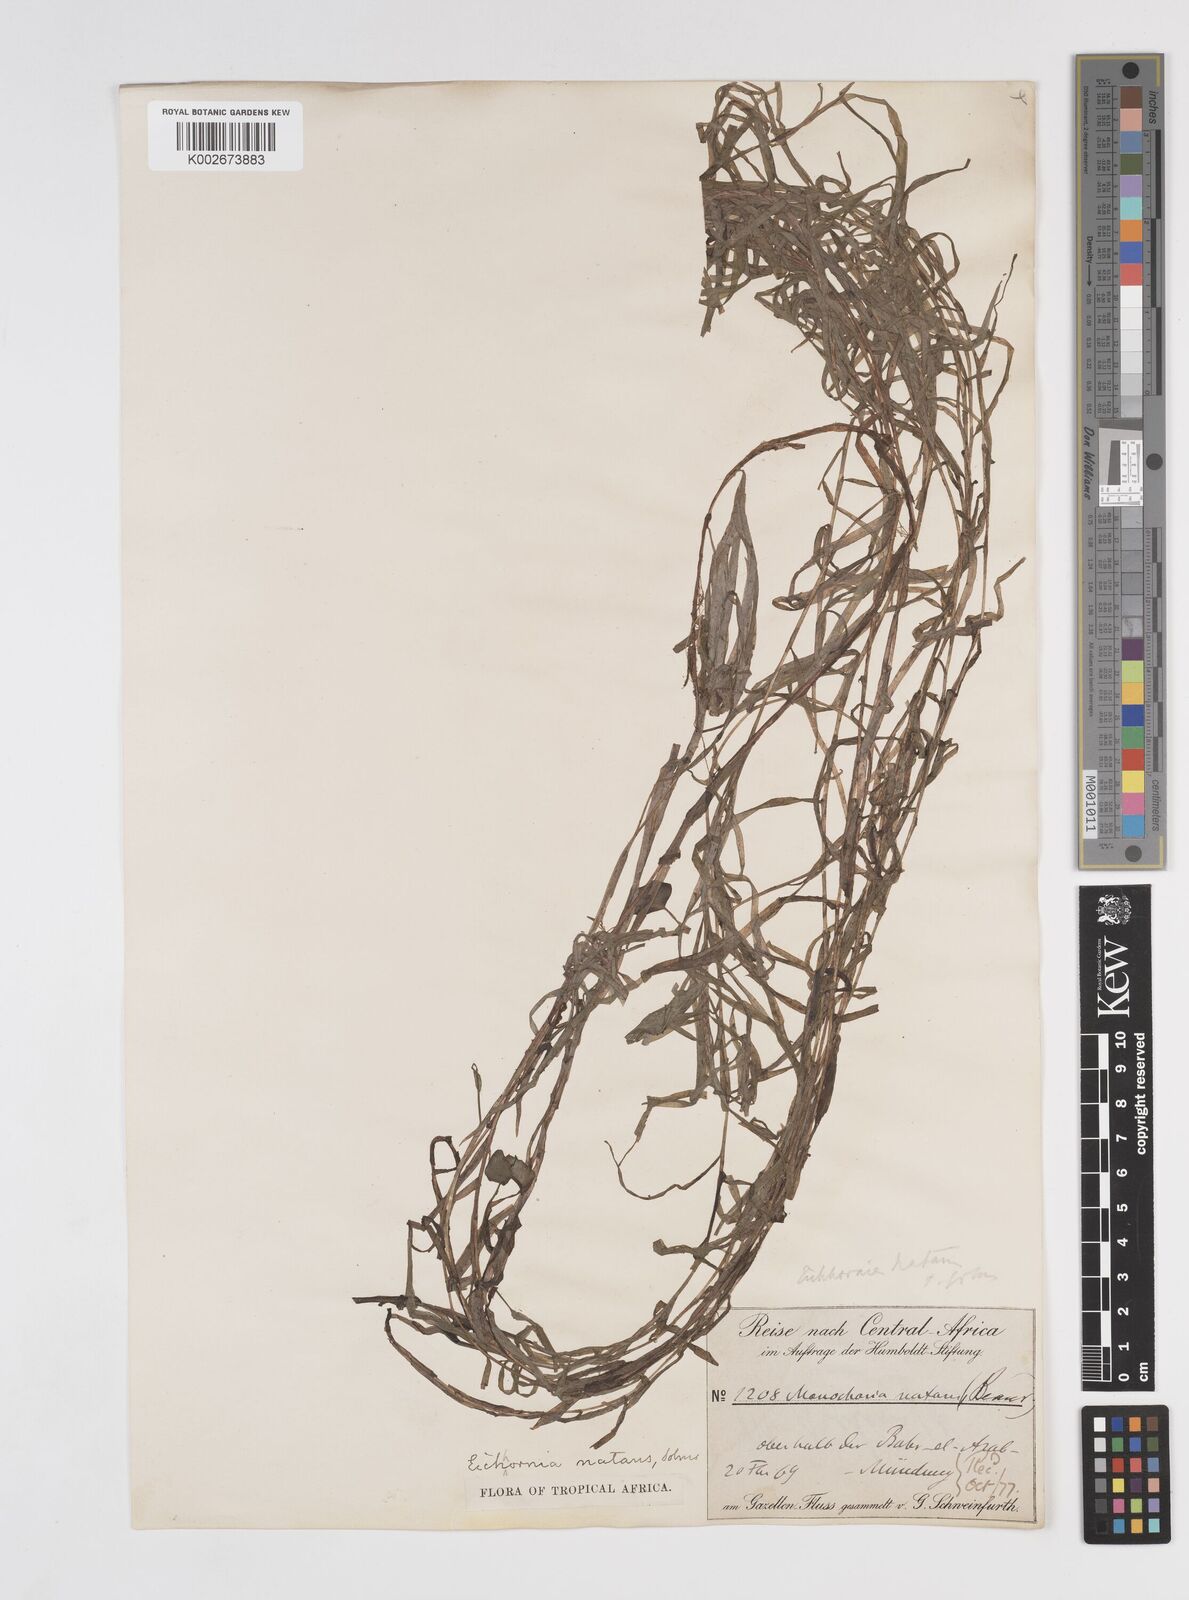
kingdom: Plantae
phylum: Tracheophyta
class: Liliopsida
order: Commelinales
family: Pontederiaceae
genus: Pontederia
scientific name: Pontederia diversifolia
